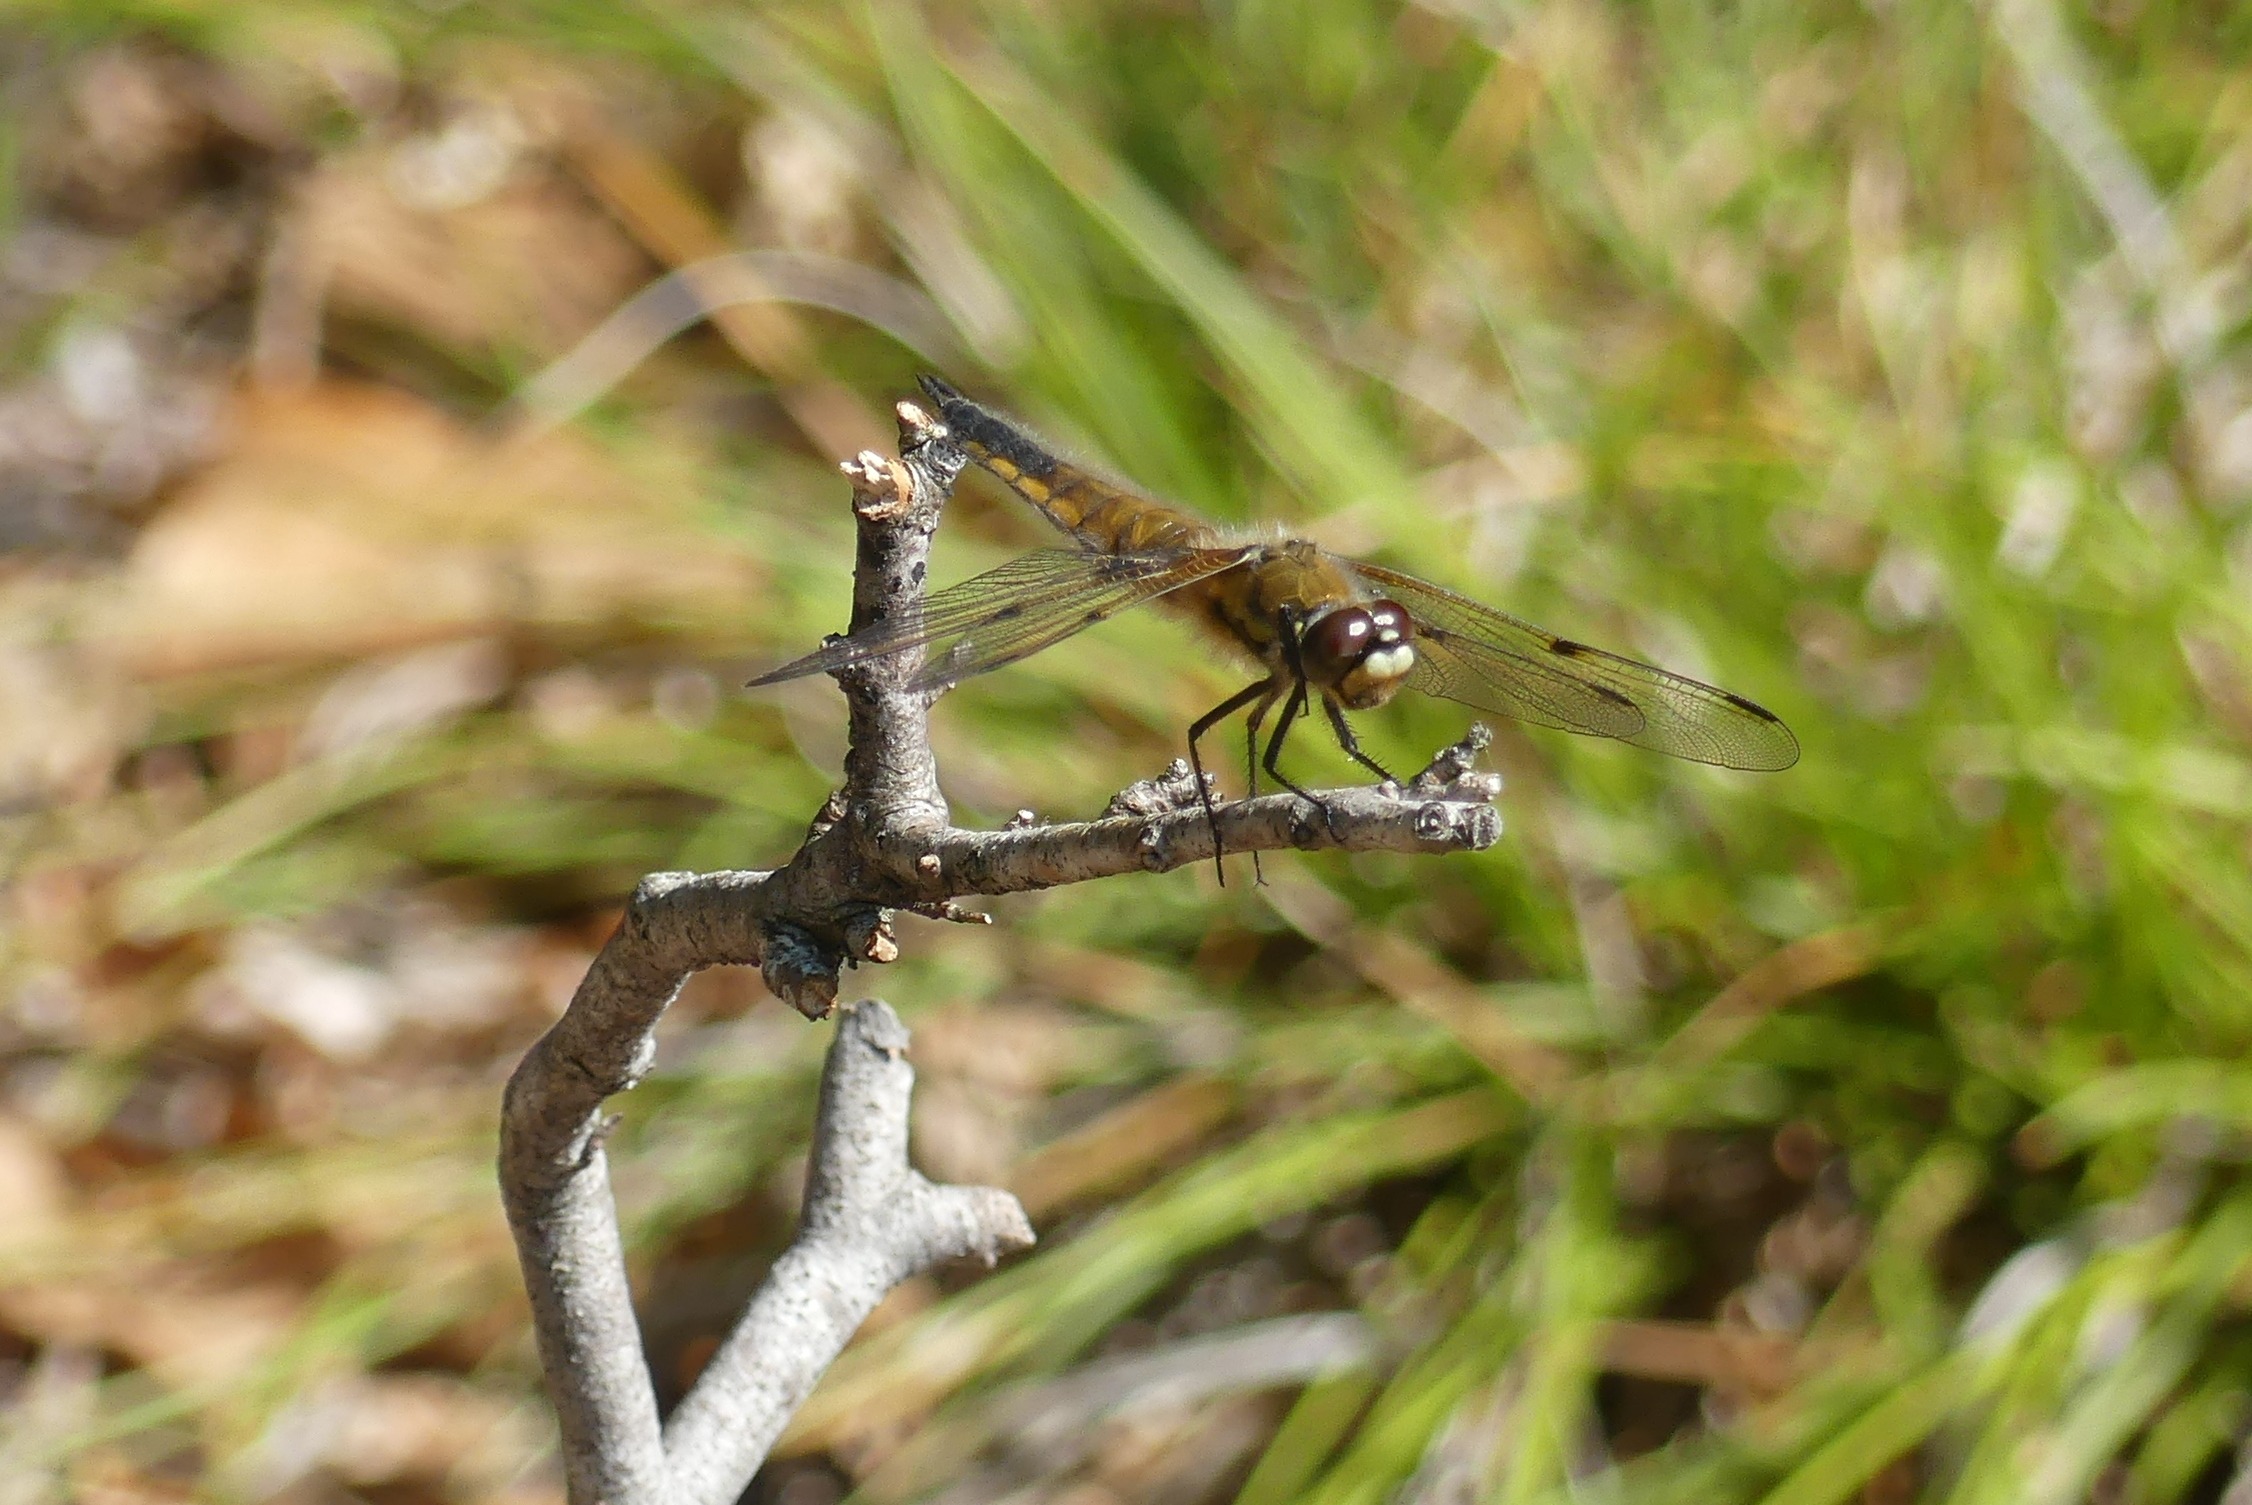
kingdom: Animalia
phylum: Arthropoda
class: Insecta
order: Odonata
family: Libellulidae
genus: Libellula
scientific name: Libellula quadrimaculata
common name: Fireplettet libel
